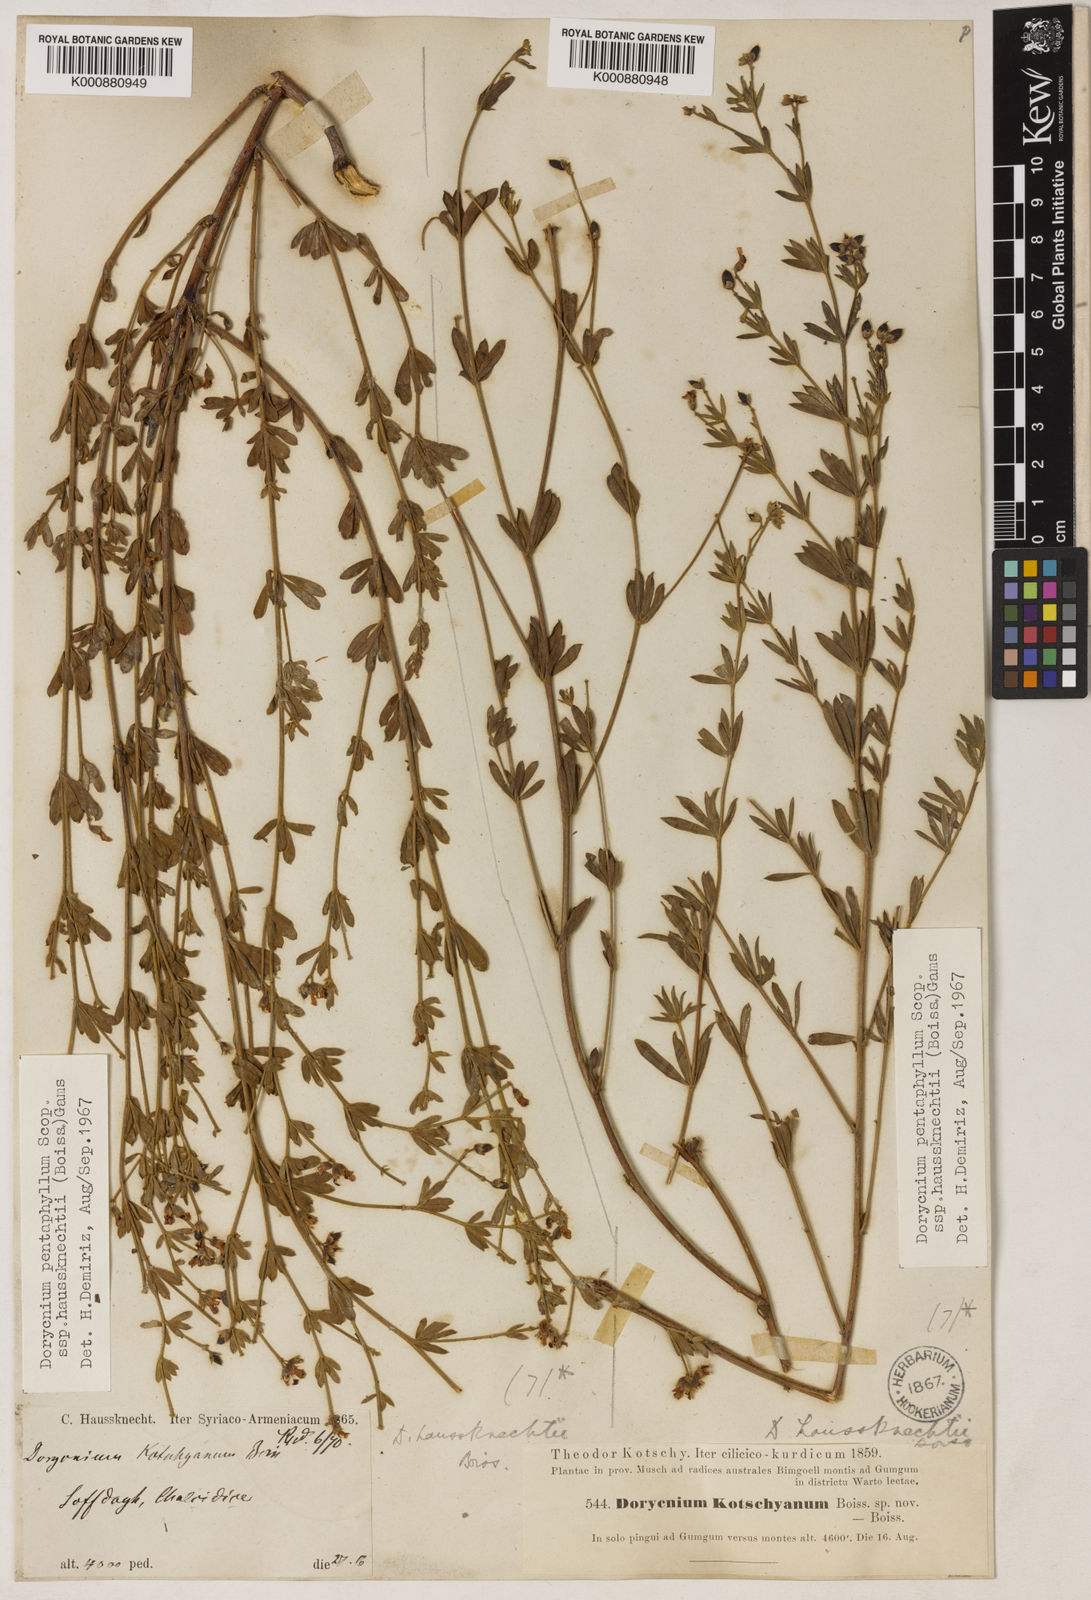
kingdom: Plantae
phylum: Tracheophyta
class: Magnoliopsida
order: Fabales
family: Fabaceae
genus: Lotus
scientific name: Lotus dorycnium
